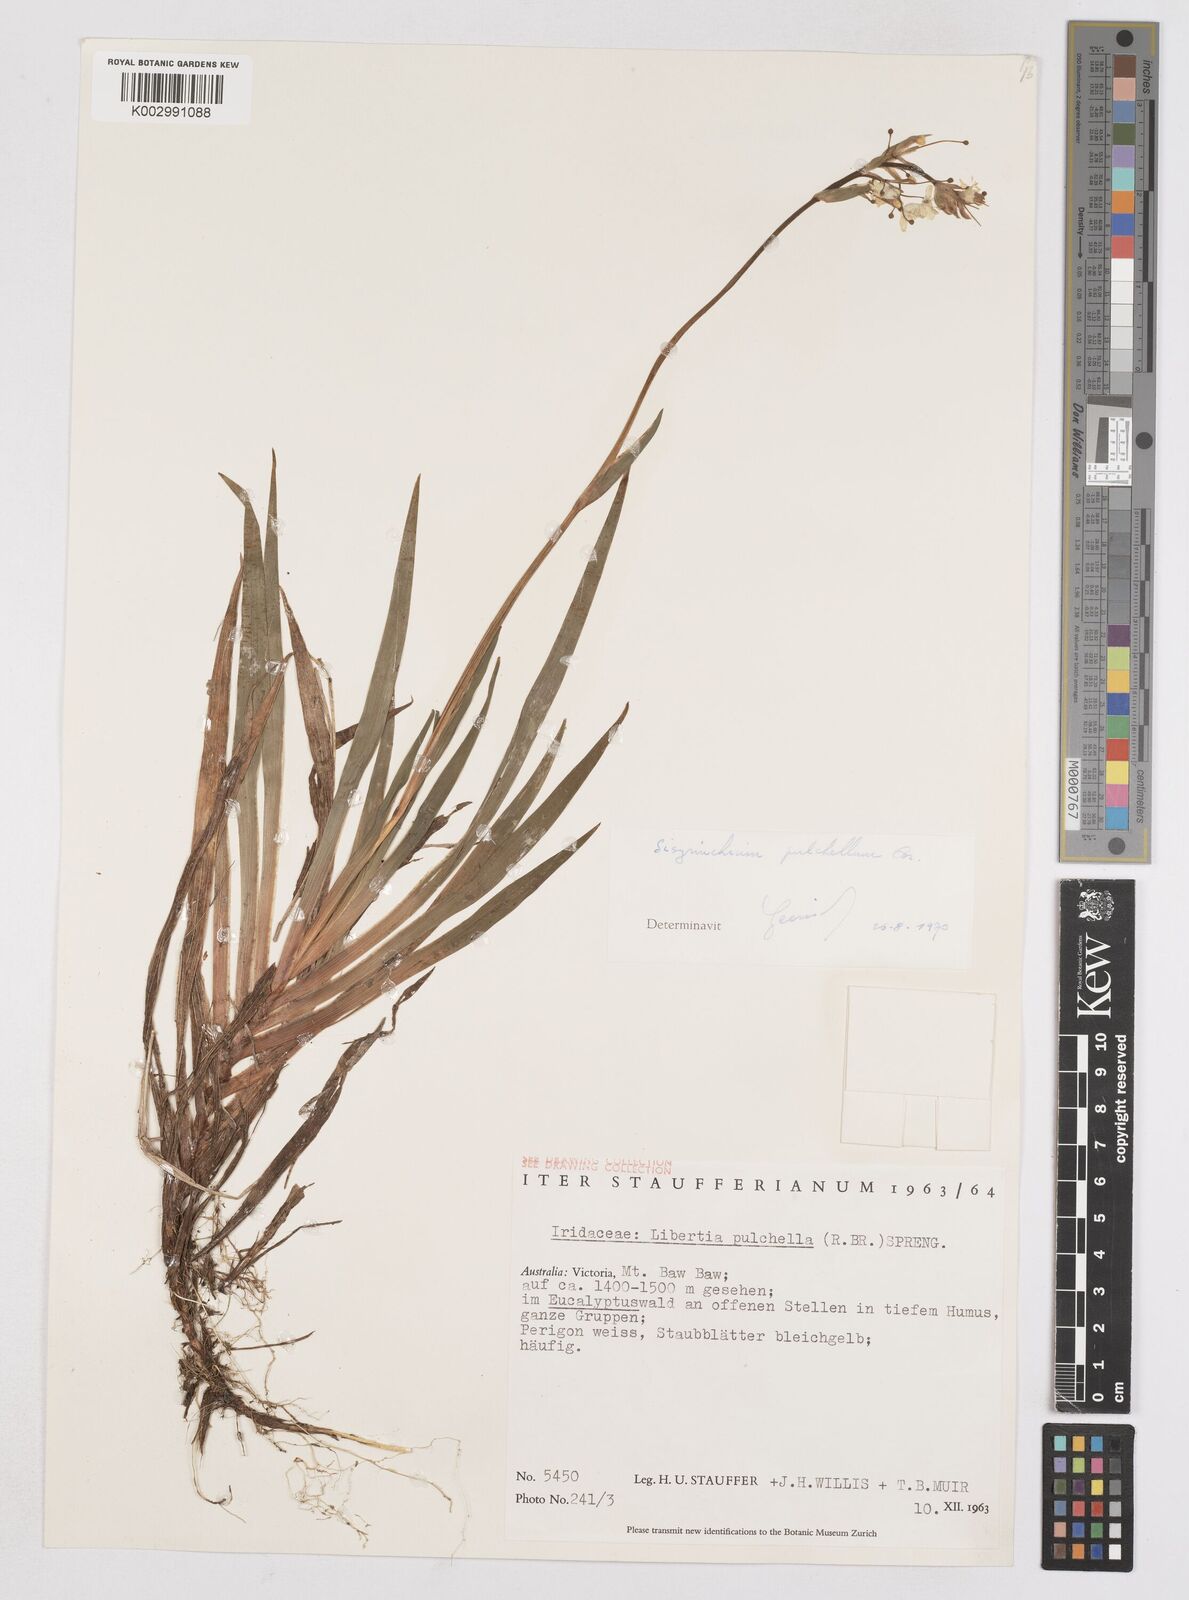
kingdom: Plantae
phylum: Tracheophyta
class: Liliopsida
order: Asparagales
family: Iridaceae
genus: Libertia
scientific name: Libertia pulchella
